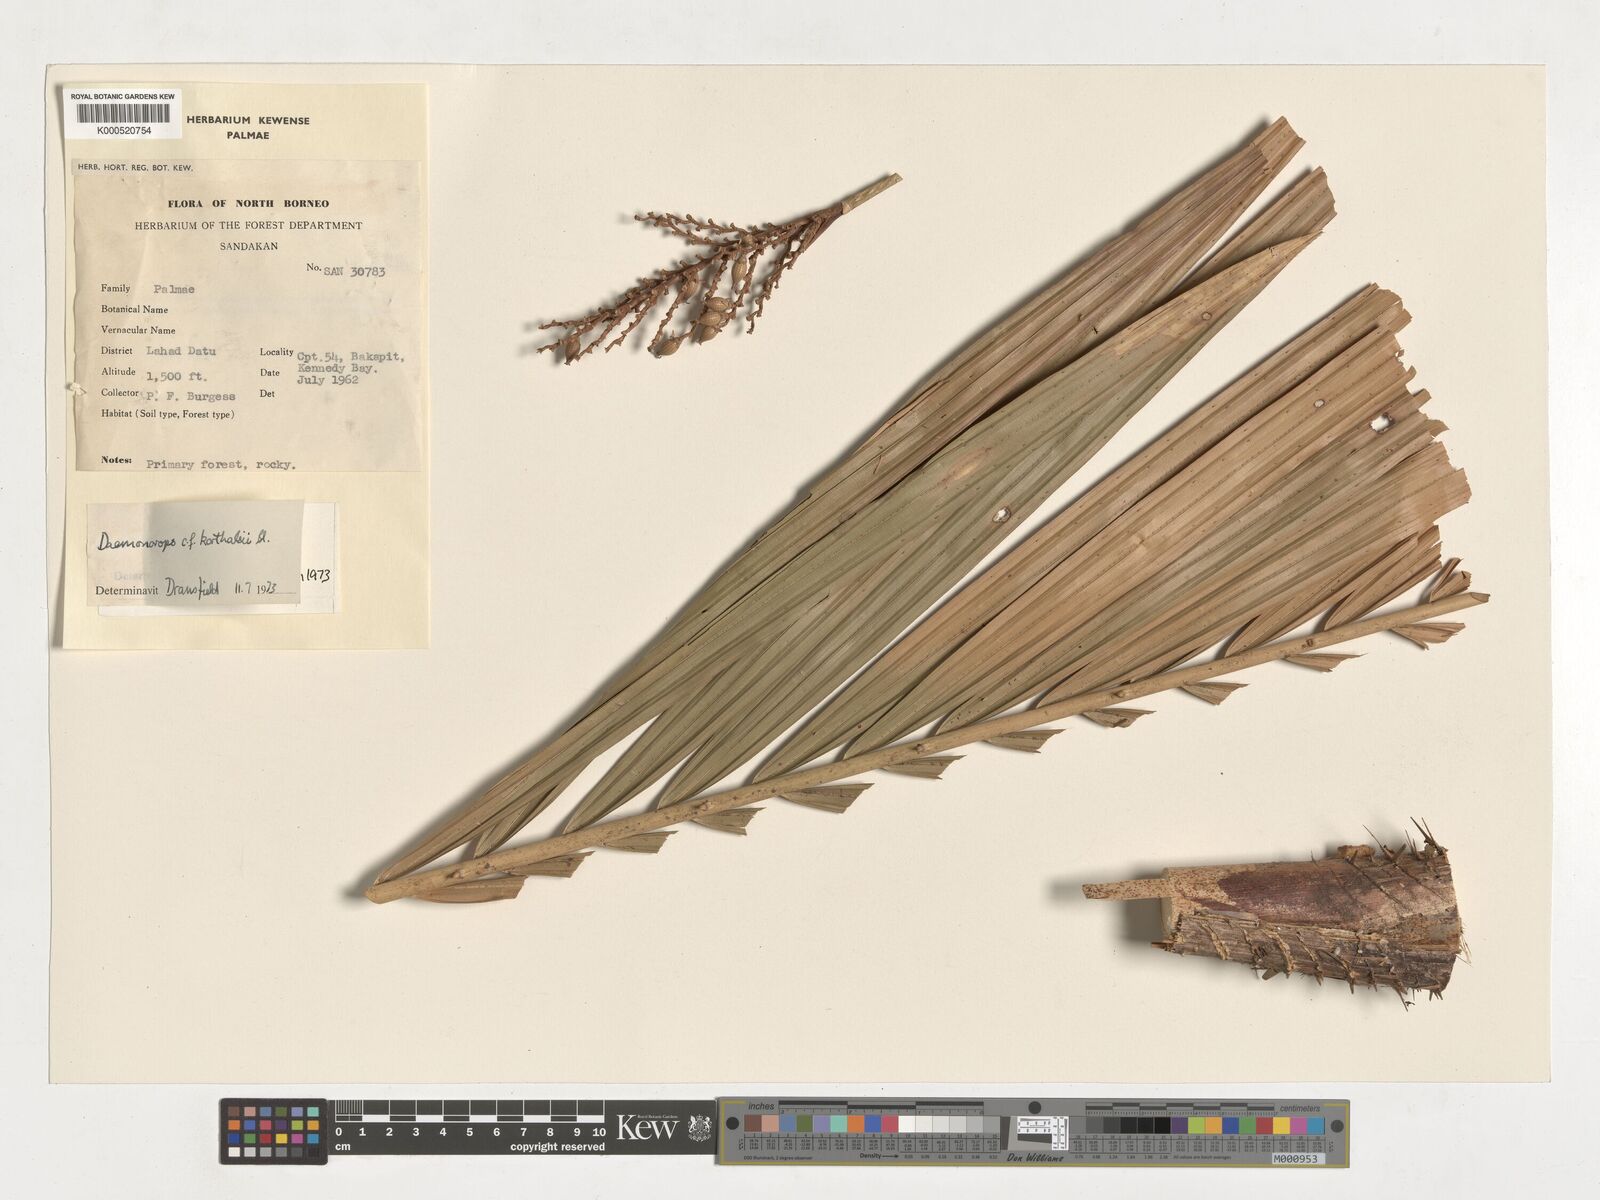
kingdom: Plantae
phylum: Tracheophyta
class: Liliopsida
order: Arecales
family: Arecaceae
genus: Calamus
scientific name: Calamus hirsutus
